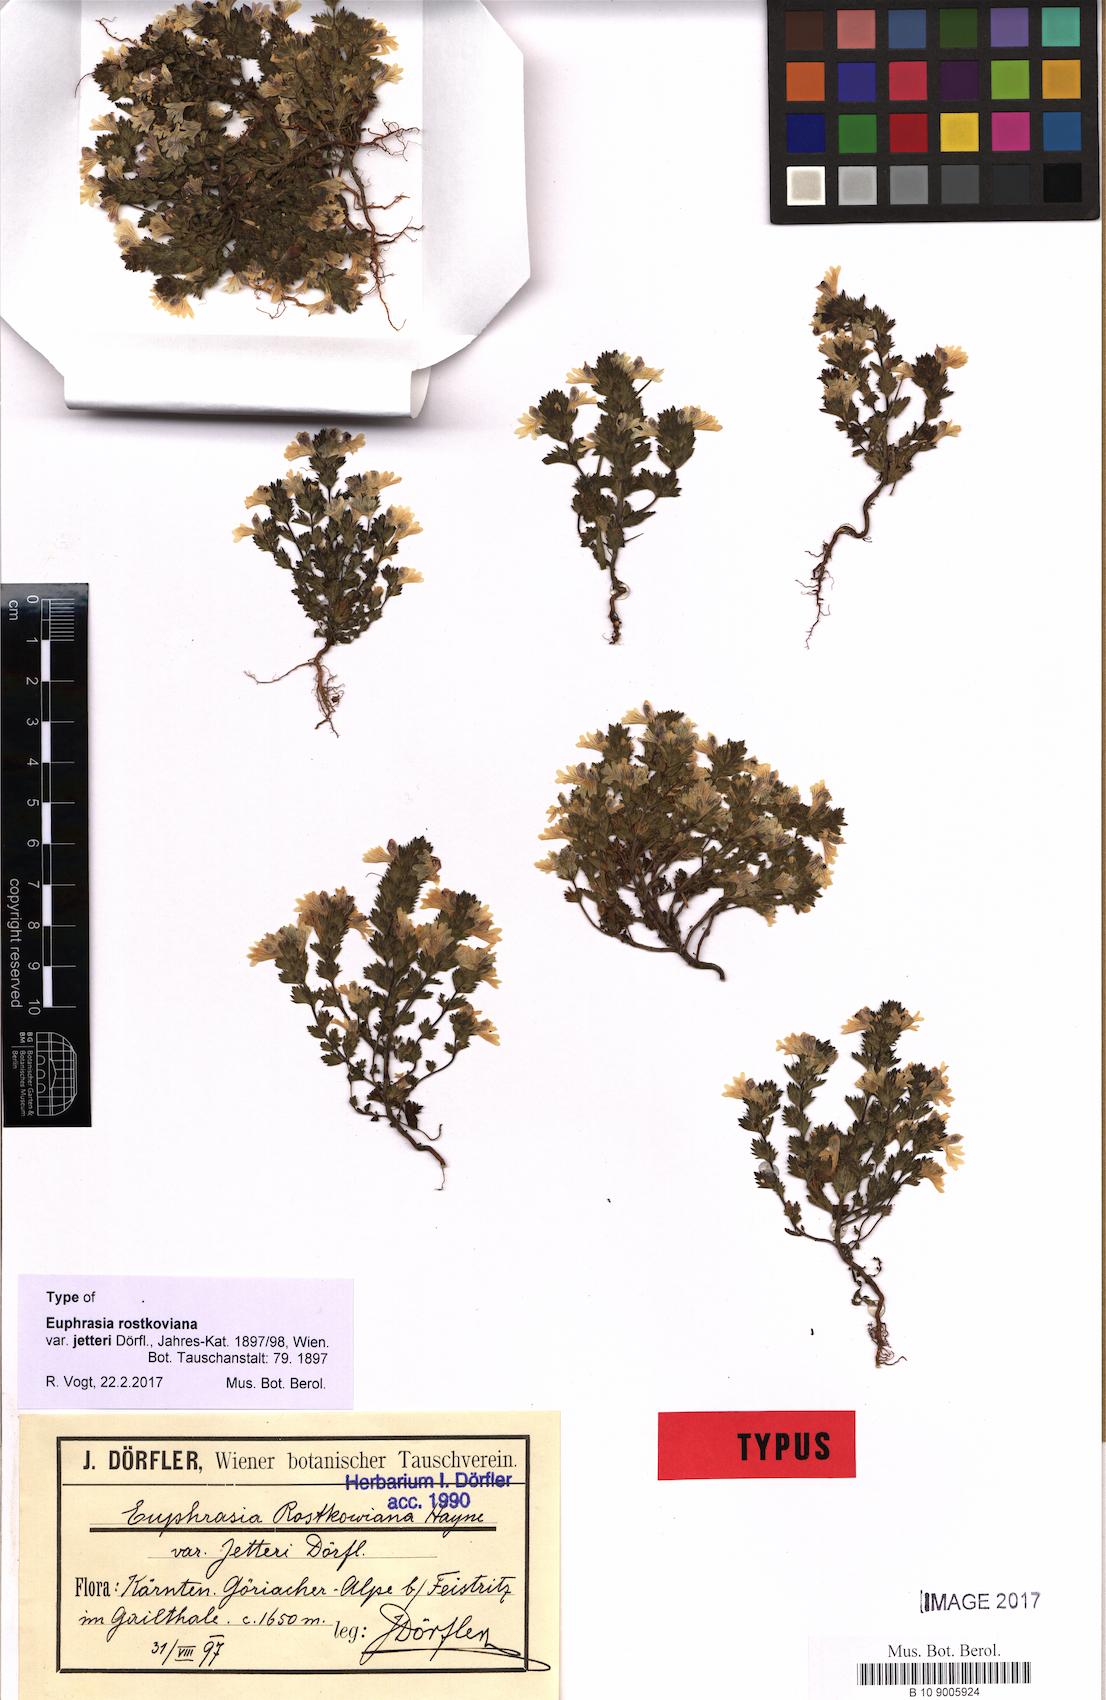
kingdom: Plantae
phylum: Tracheophyta
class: Magnoliopsida
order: Lamiales
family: Orobanchaceae
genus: Euphrasia
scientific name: Euphrasia officinalis
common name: Eyebright
